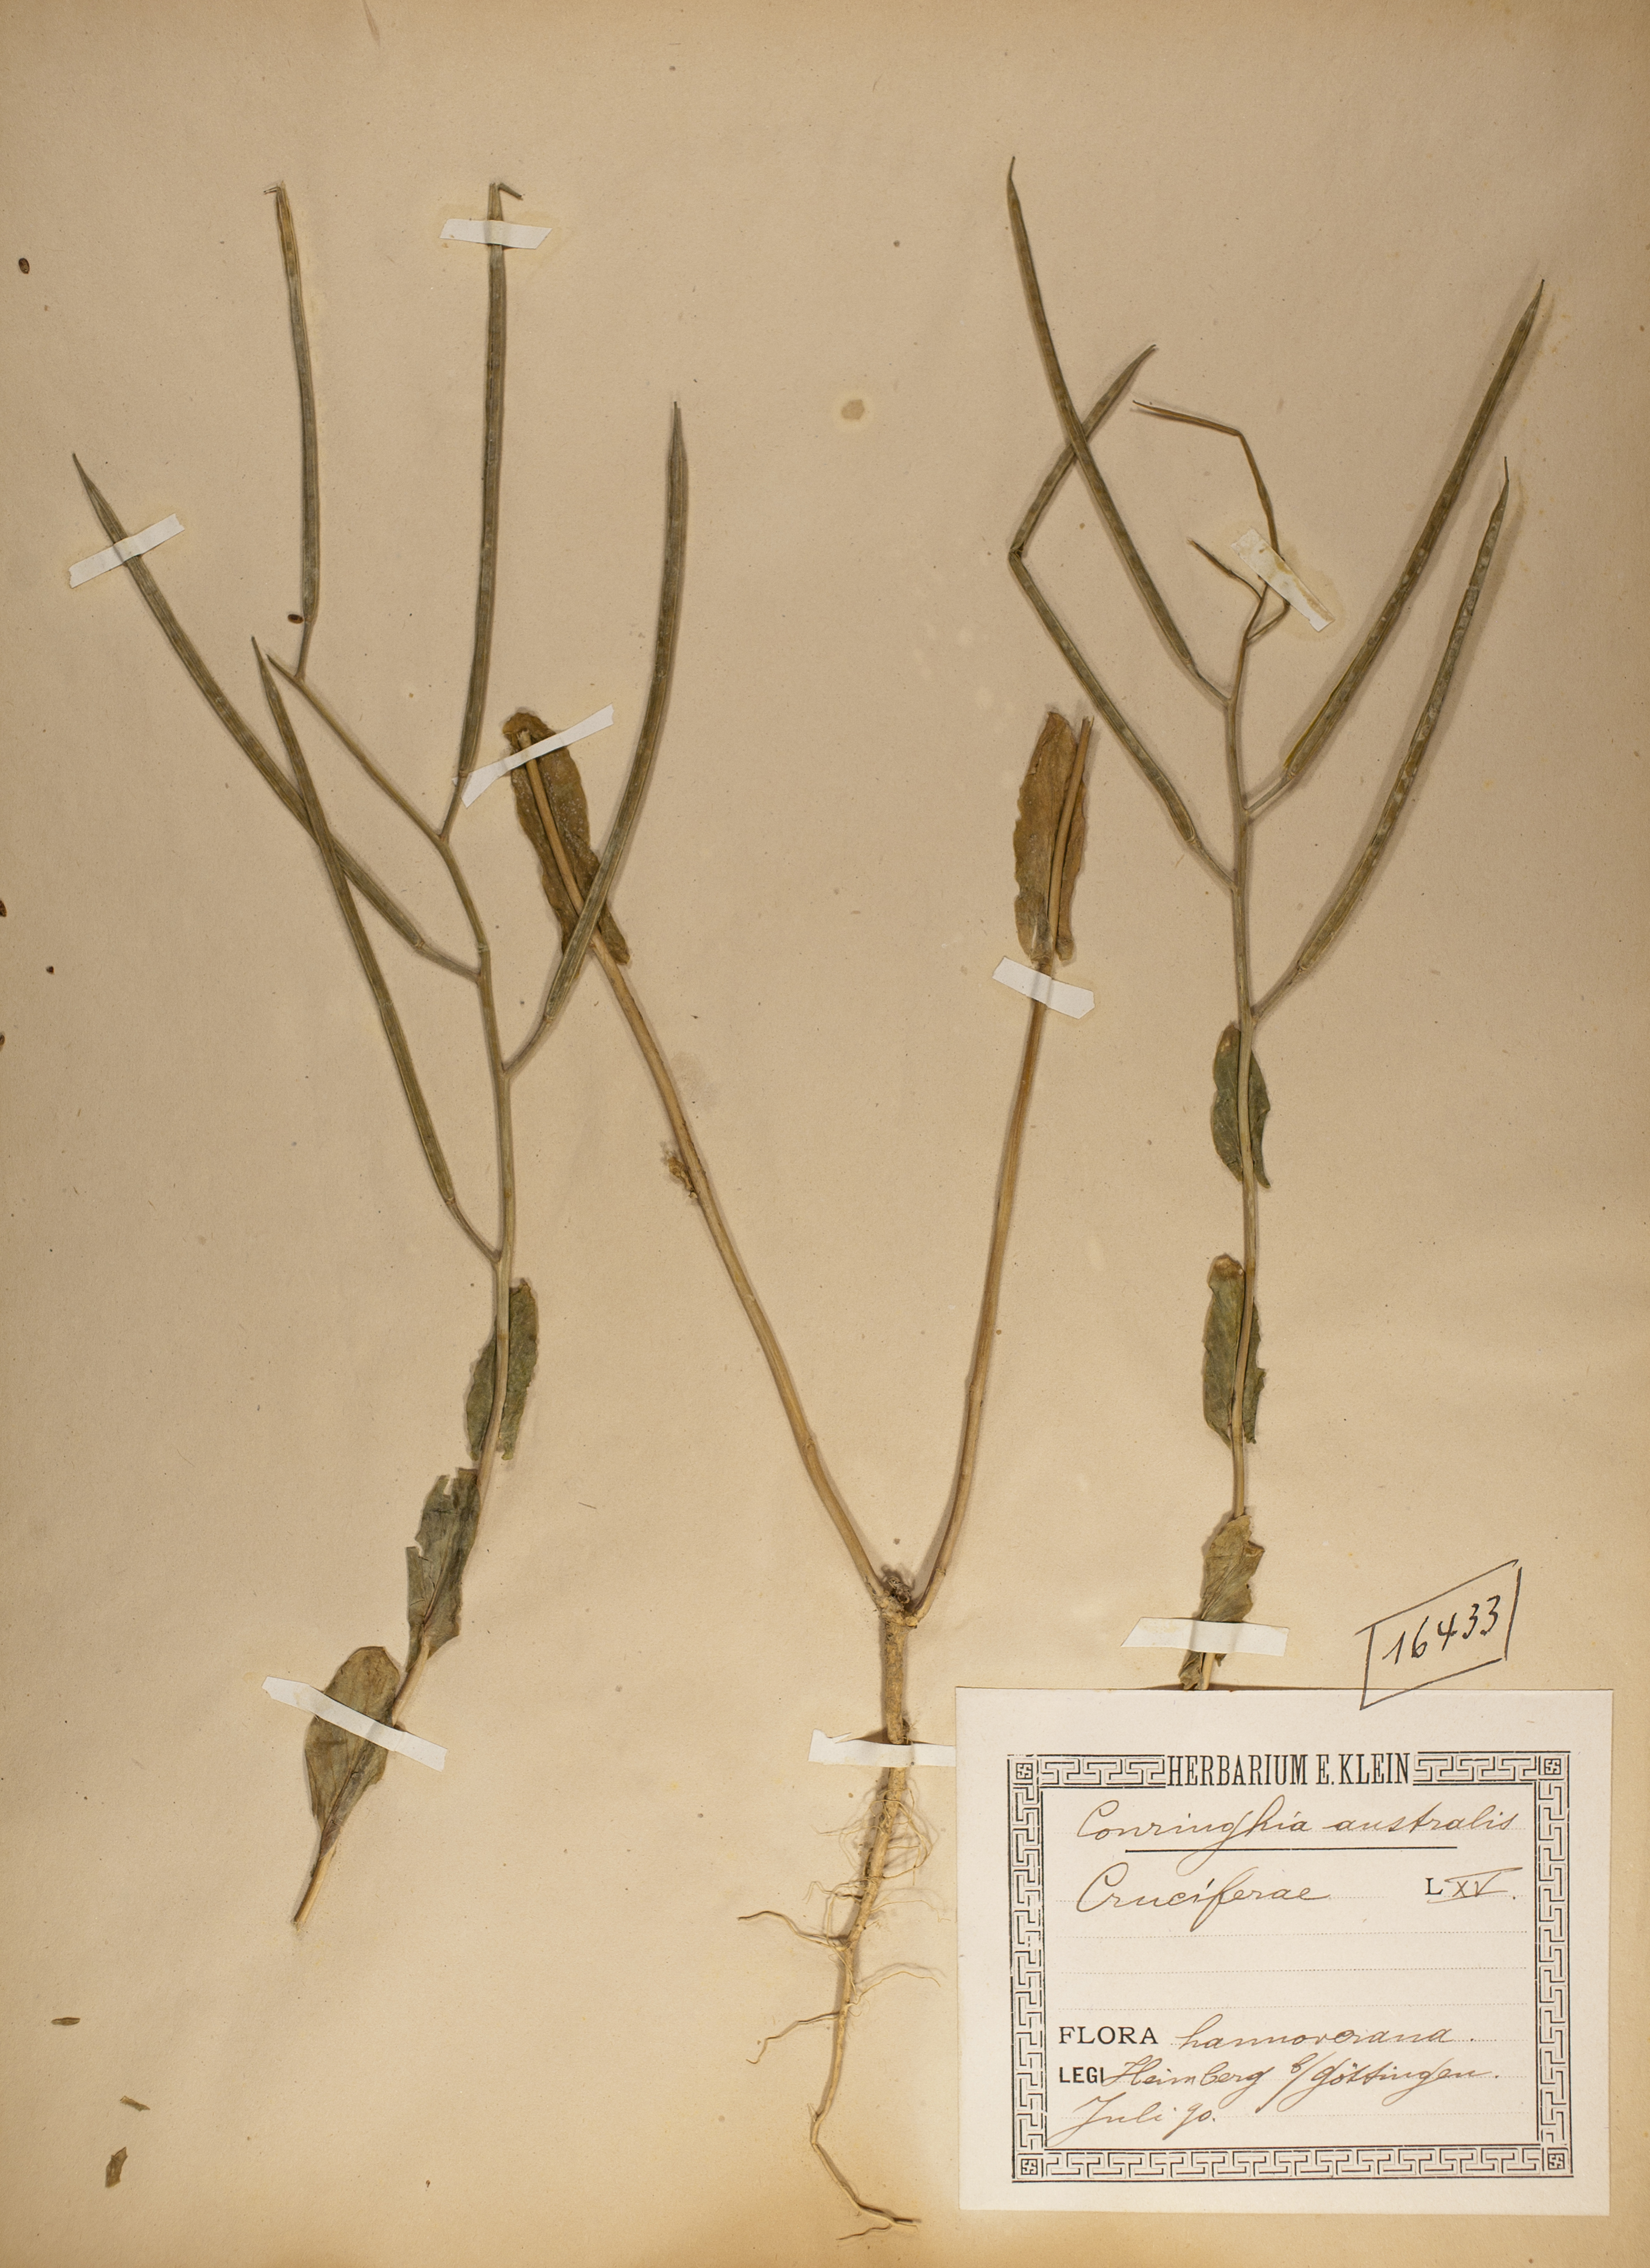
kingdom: Plantae
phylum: Tracheophyta
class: Magnoliopsida
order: Brassicales
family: Brassicaceae
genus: Conringia
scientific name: Conringia austriaca
